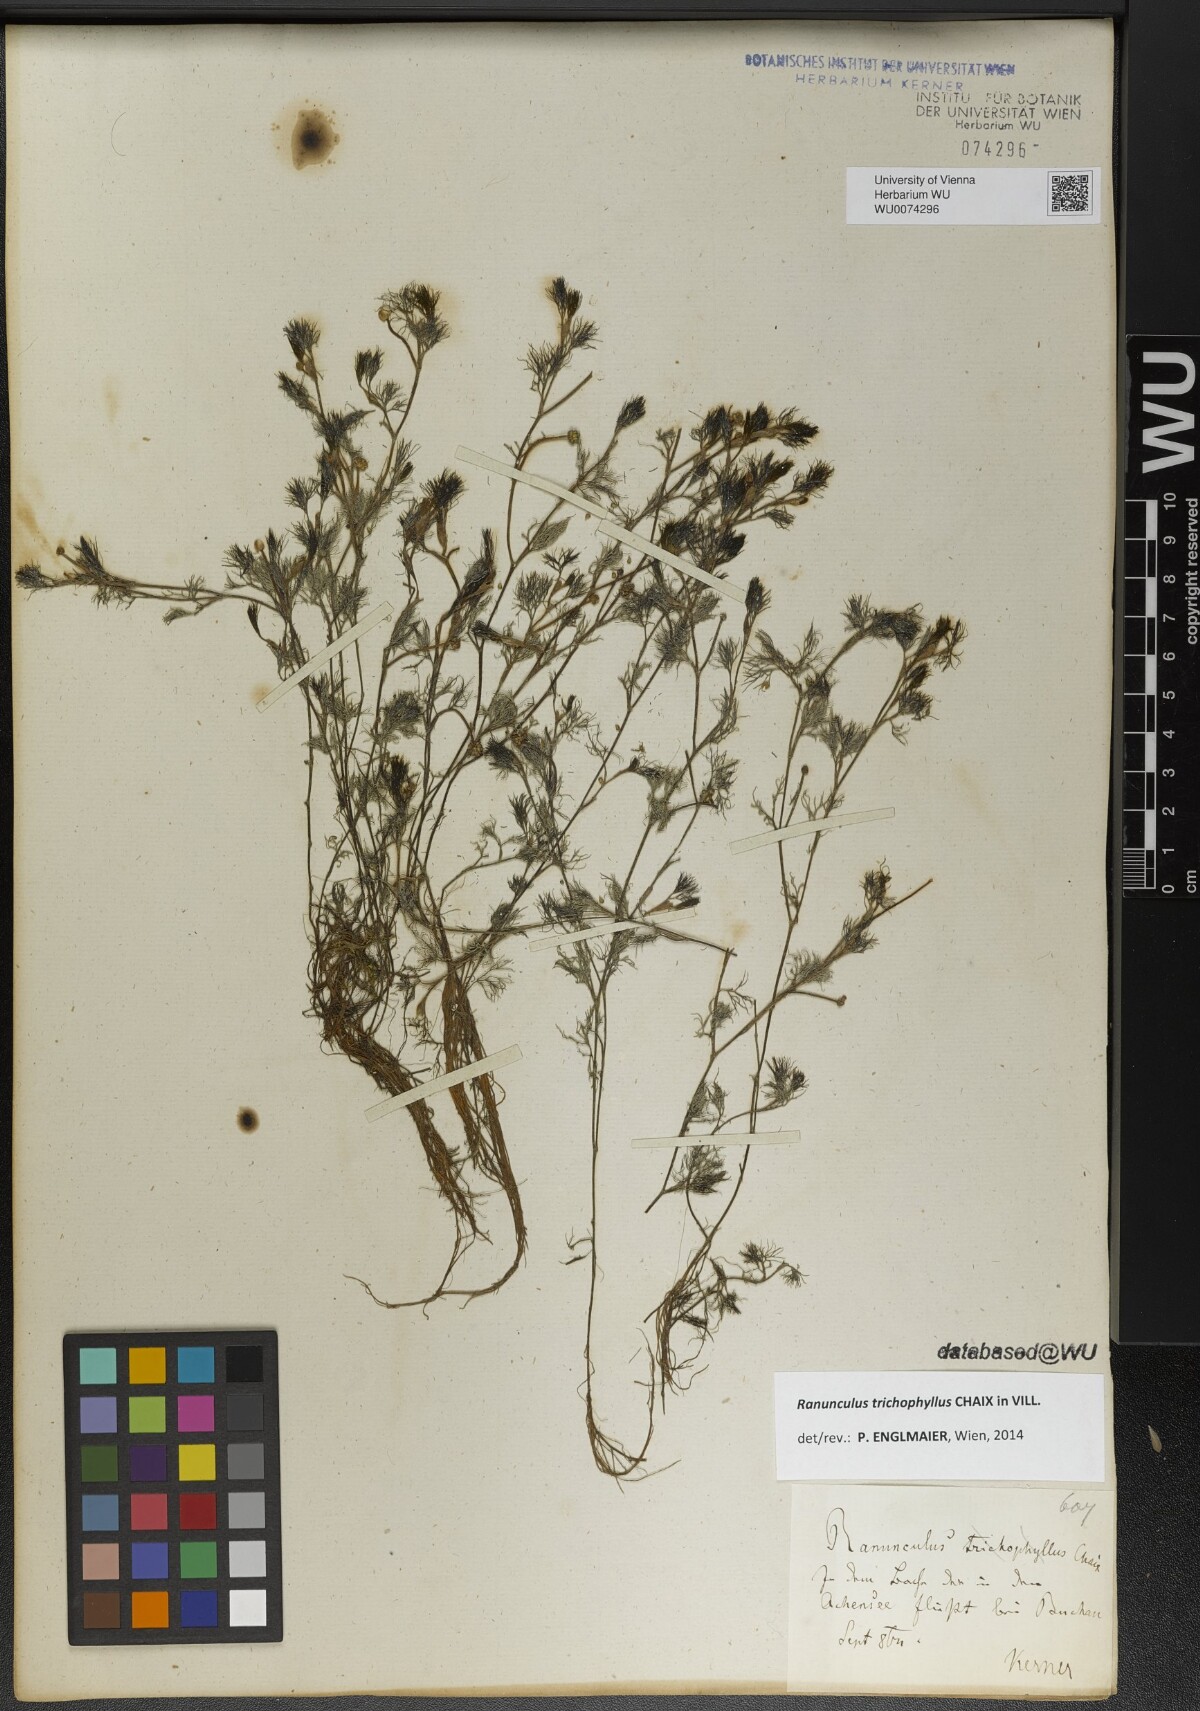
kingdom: Plantae
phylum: Tracheophyta
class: Magnoliopsida
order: Ranunculales
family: Ranunculaceae
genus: Ranunculus
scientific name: Ranunculus trichophyllus
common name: Thread-leaved water-crowfoot
